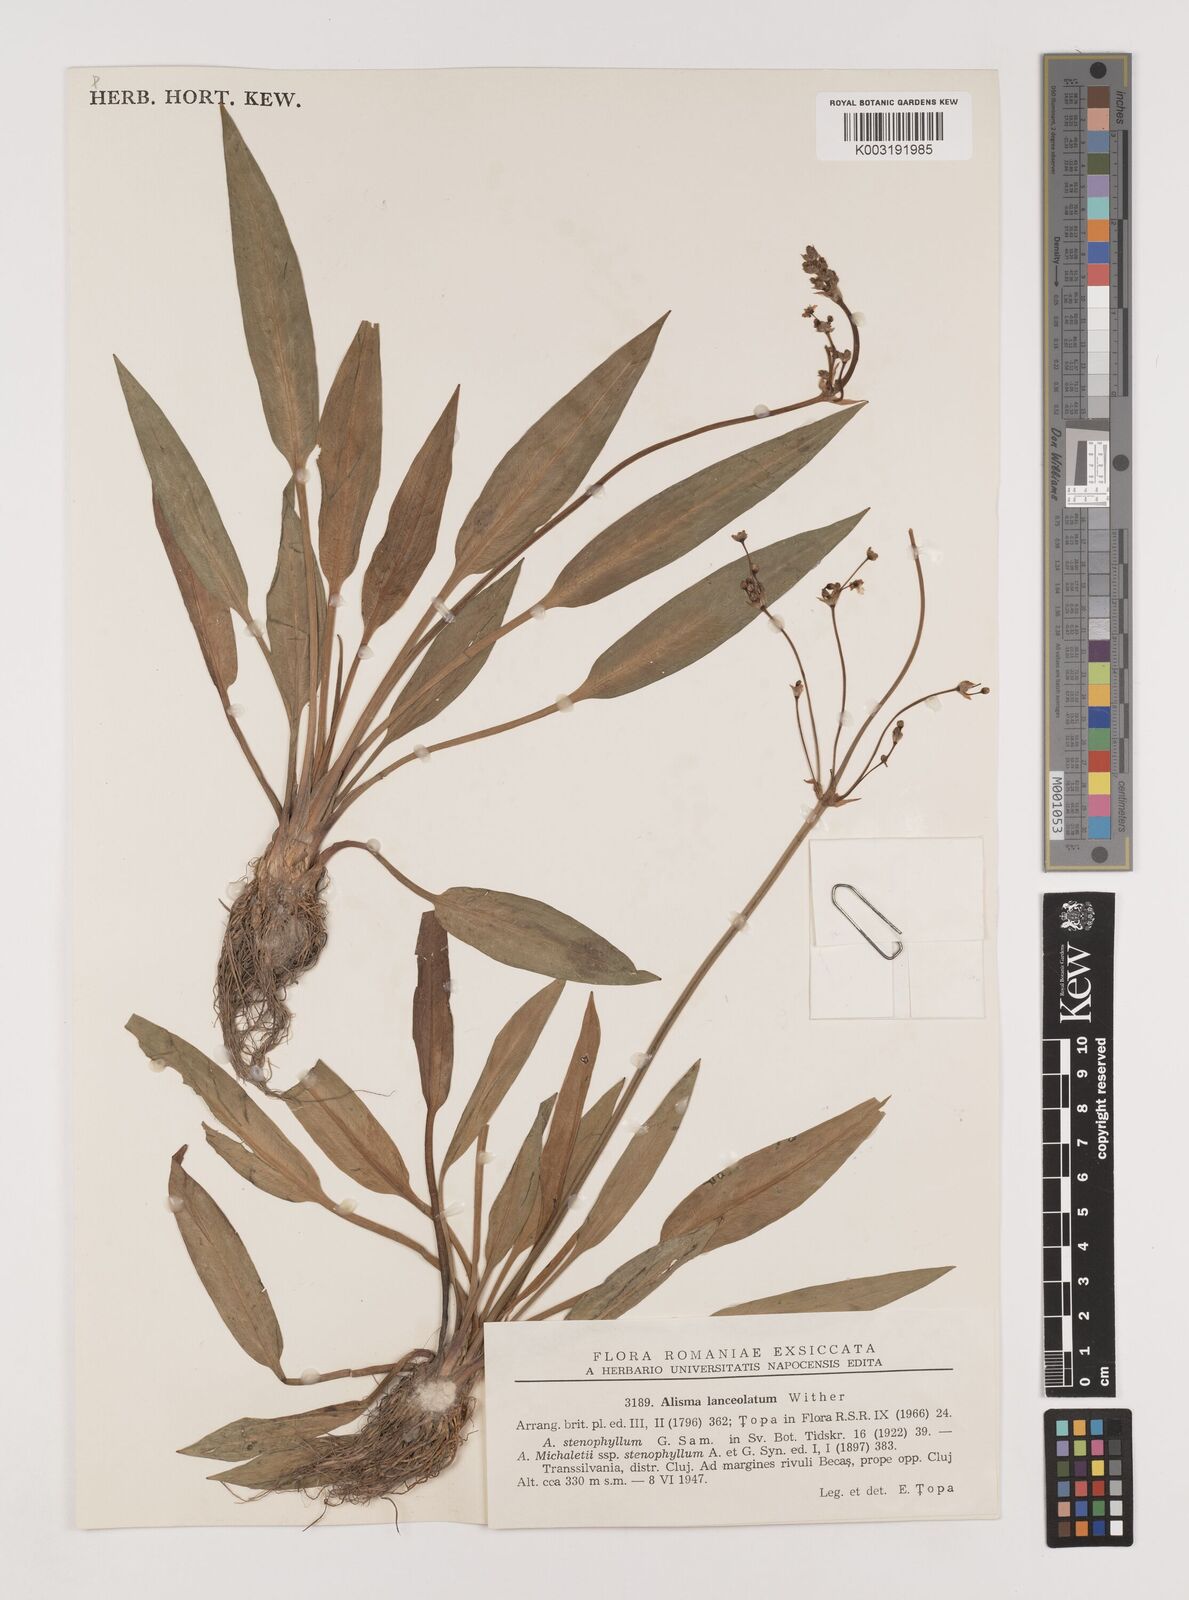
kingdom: Plantae
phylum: Tracheophyta
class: Liliopsida
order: Alismatales
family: Alismataceae
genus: Alisma
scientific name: Alisma lanceolatum
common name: Narrow-leaved water-plantain
